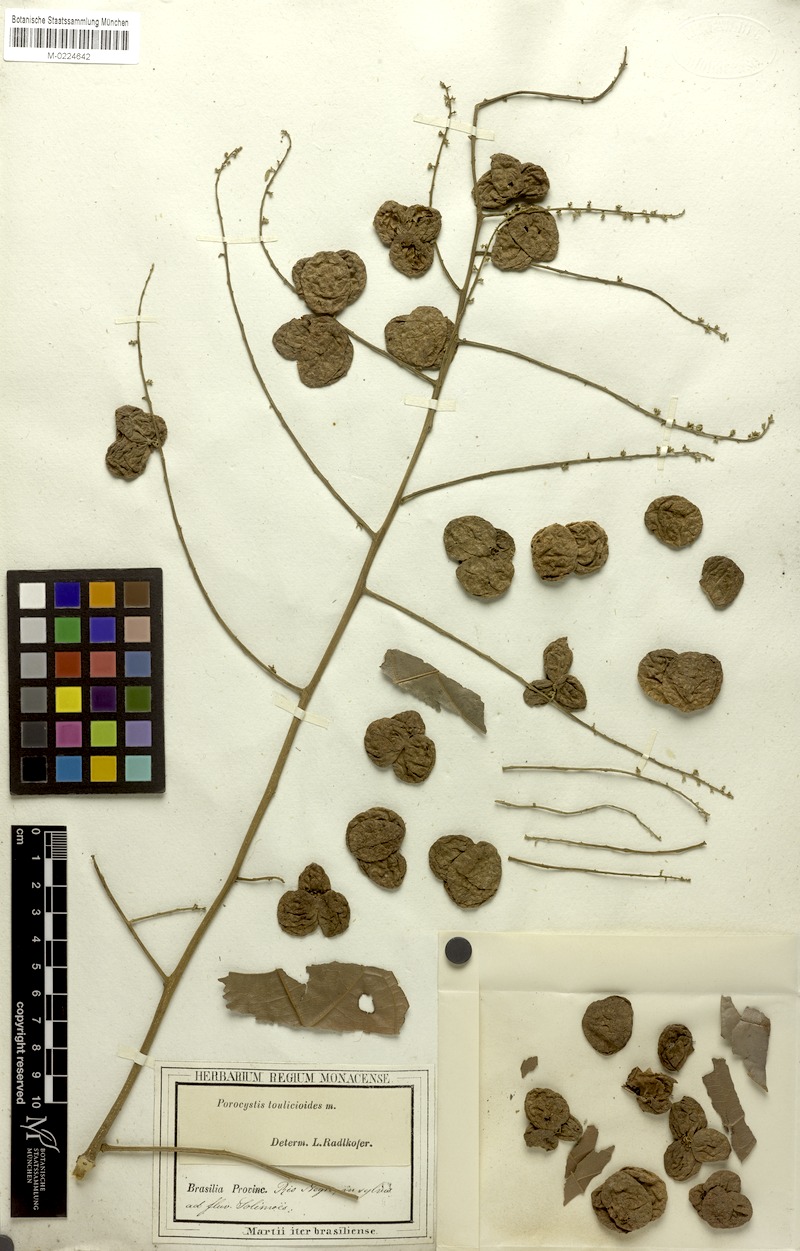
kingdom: Plantae
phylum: Tracheophyta
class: Magnoliopsida
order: Sapindales
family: Sapindaceae
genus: Porocystis
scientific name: Porocystis toulicioides
